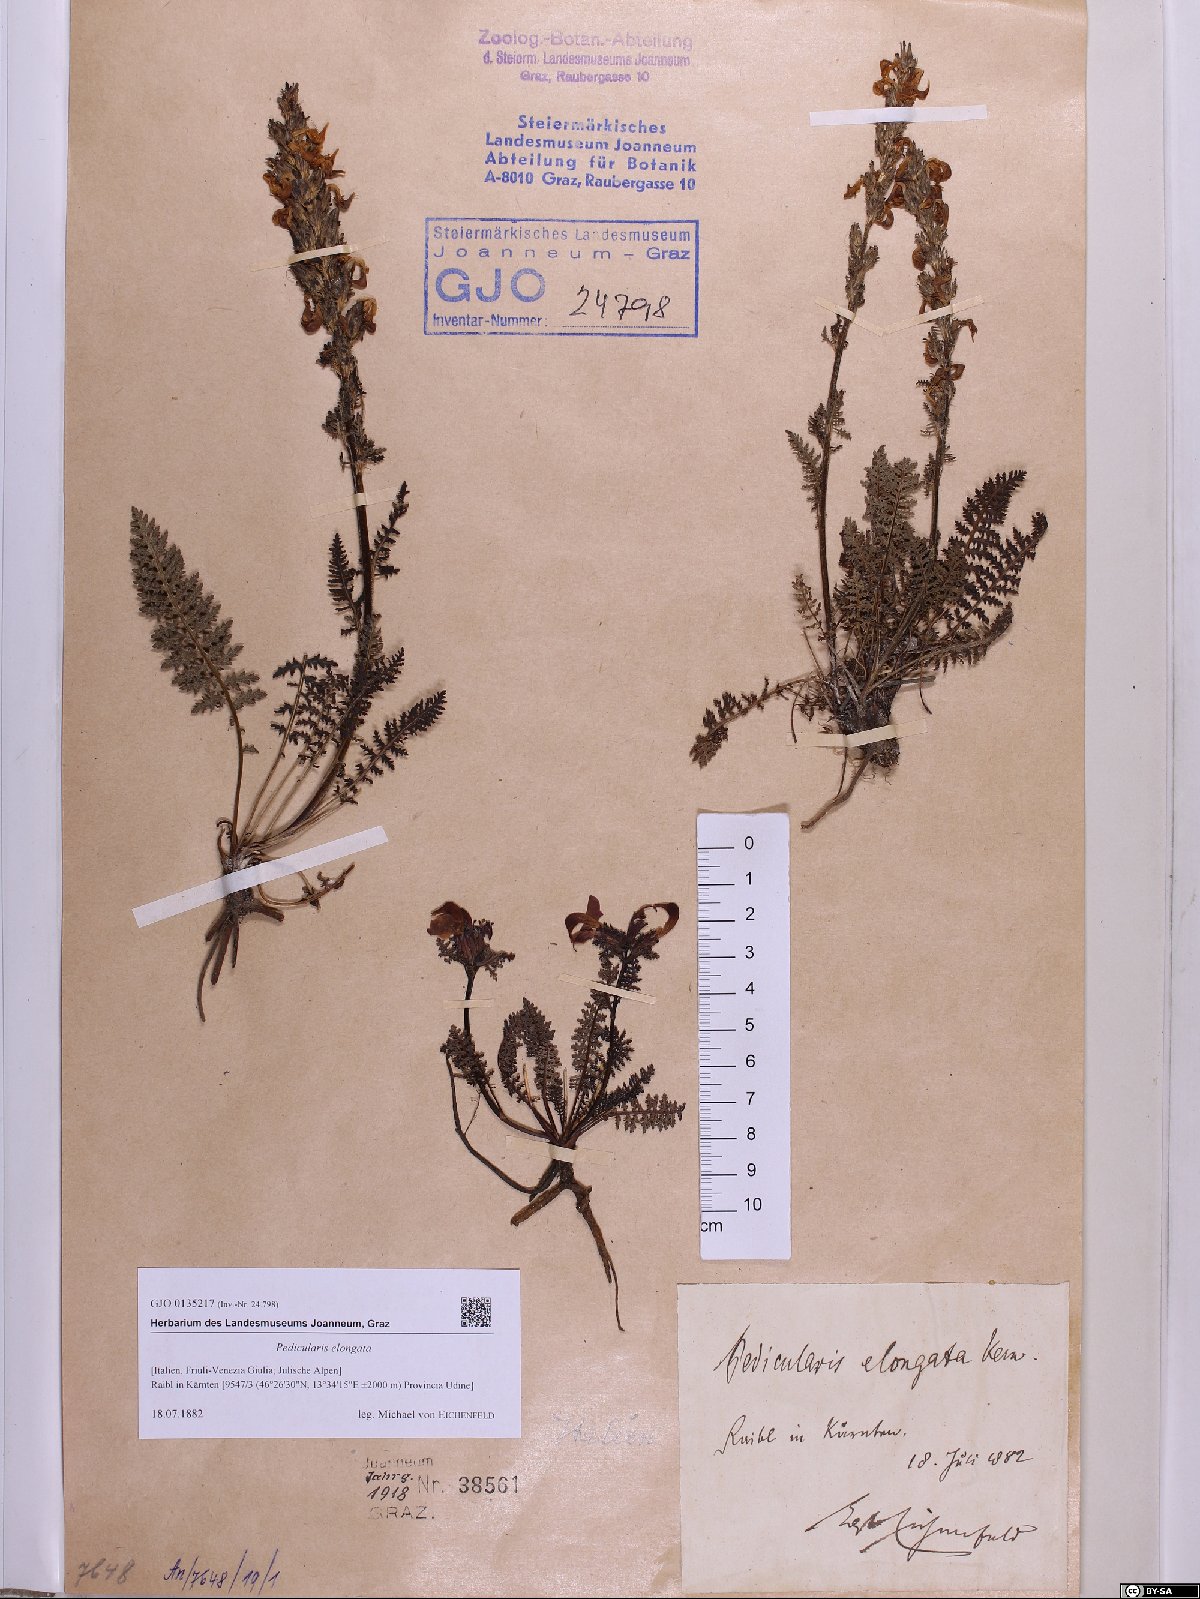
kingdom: Plantae
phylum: Tracheophyta
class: Magnoliopsida
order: Lamiales
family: Orobanchaceae
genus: Pedicularis
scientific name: Pedicularis elongata
